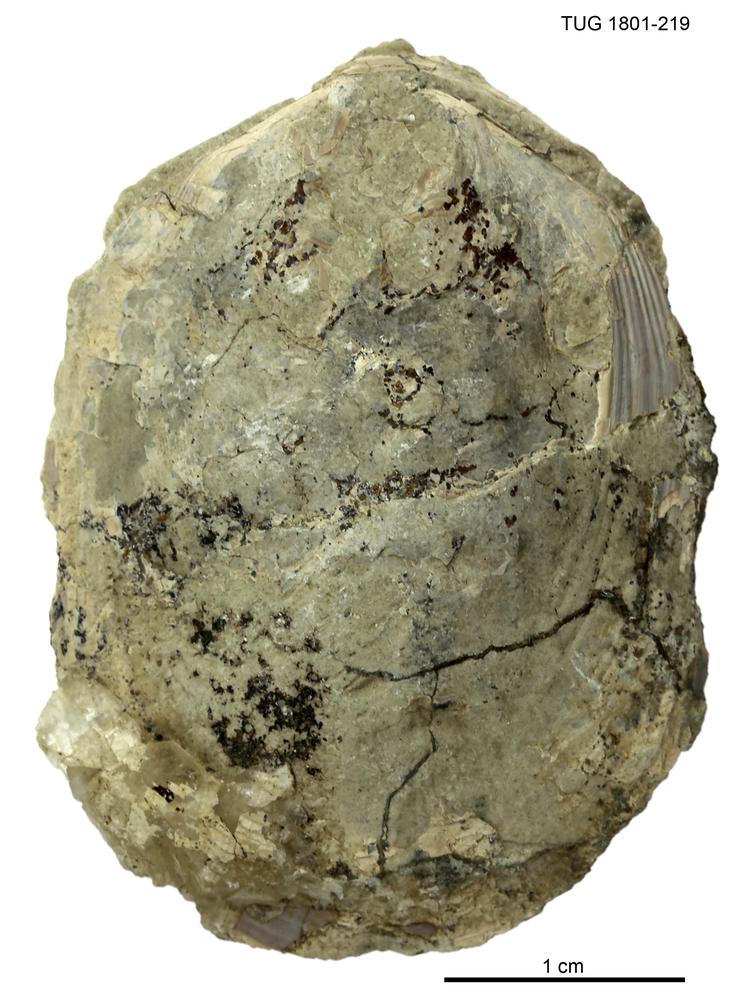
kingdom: Animalia
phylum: Brachiopoda
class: Lingulata
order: Lingulida
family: Pseudolingulidae
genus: Pseudolingula
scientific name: Pseudolingula Crania quadrata
